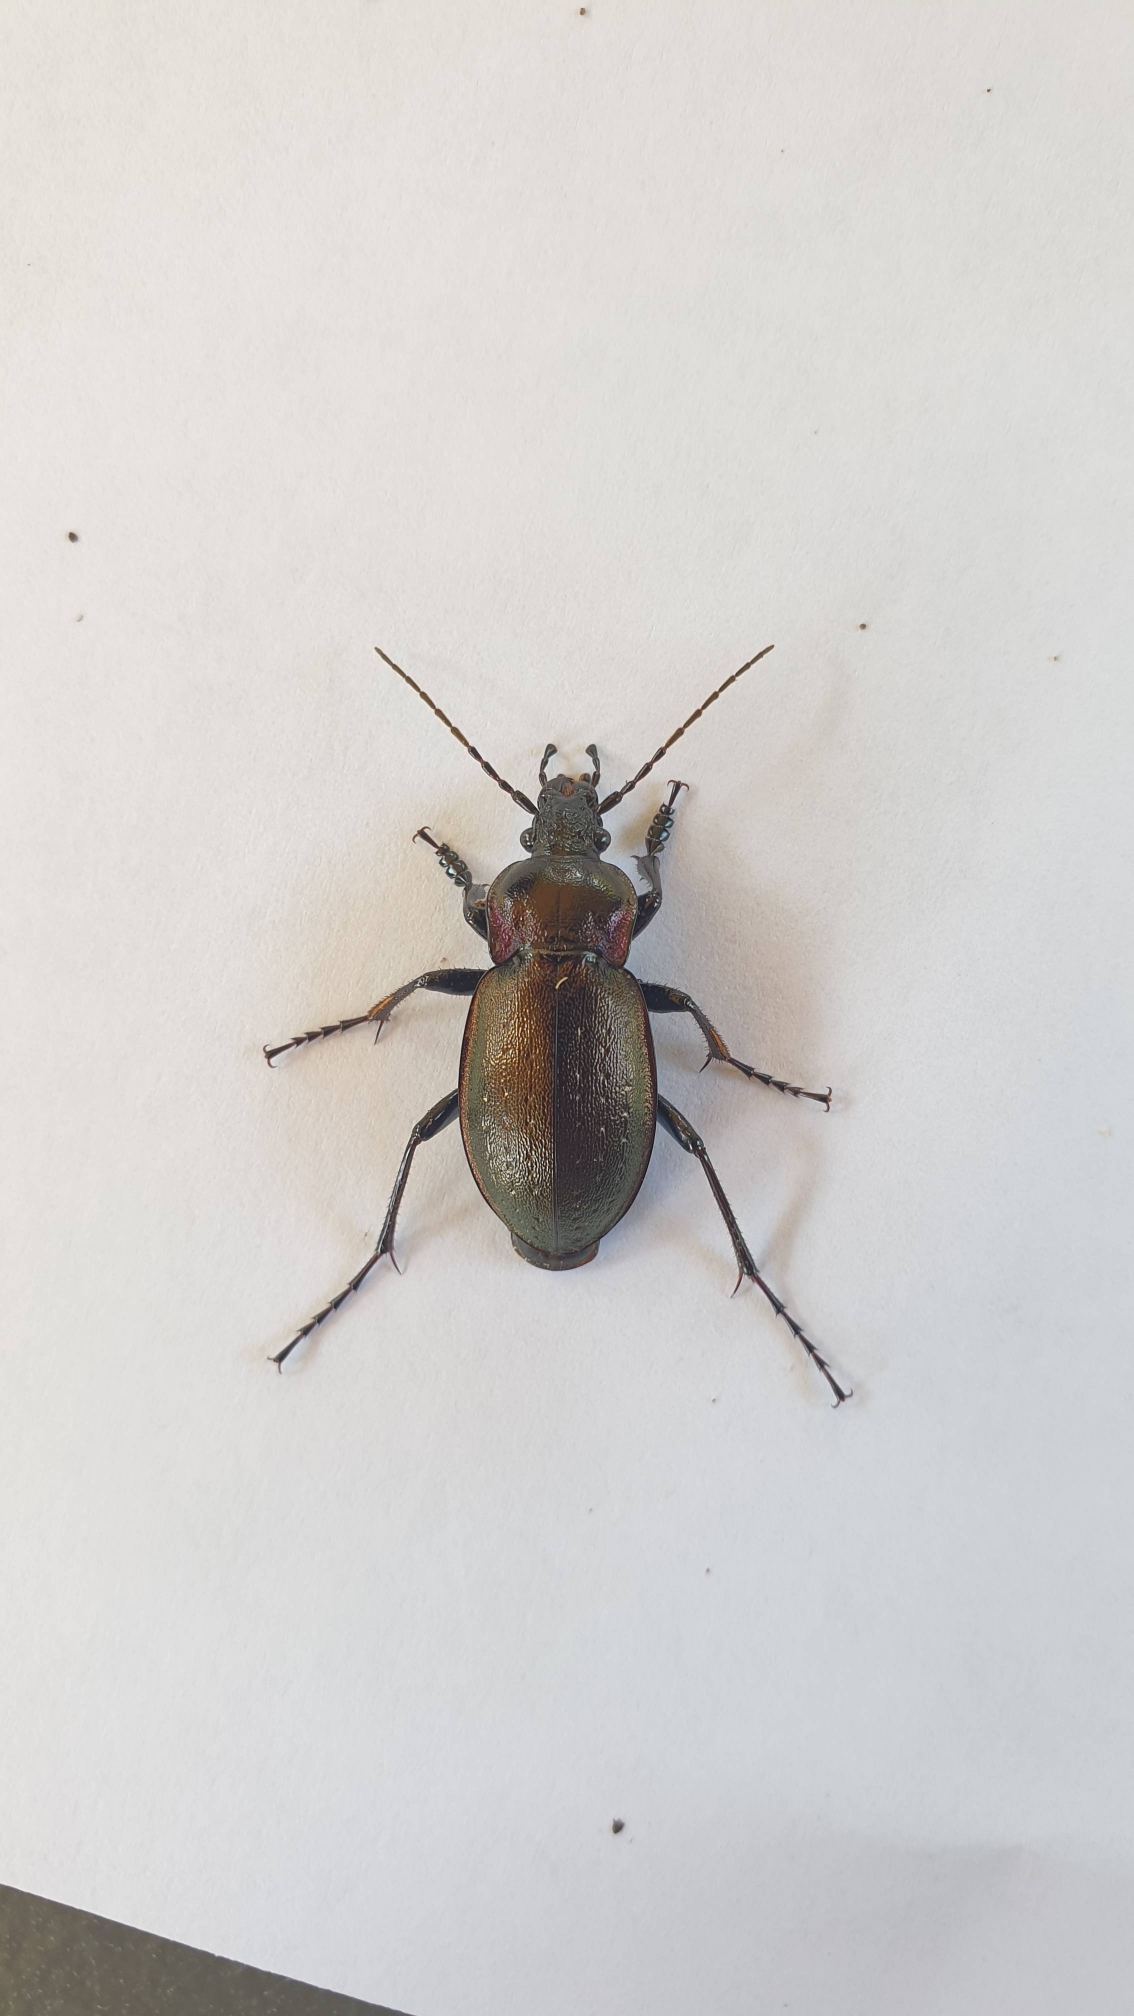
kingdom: Animalia
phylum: Arthropoda
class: Insecta
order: Coleoptera
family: Carabidae
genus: Carabus
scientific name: Carabus nemoralis
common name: Kratløber
